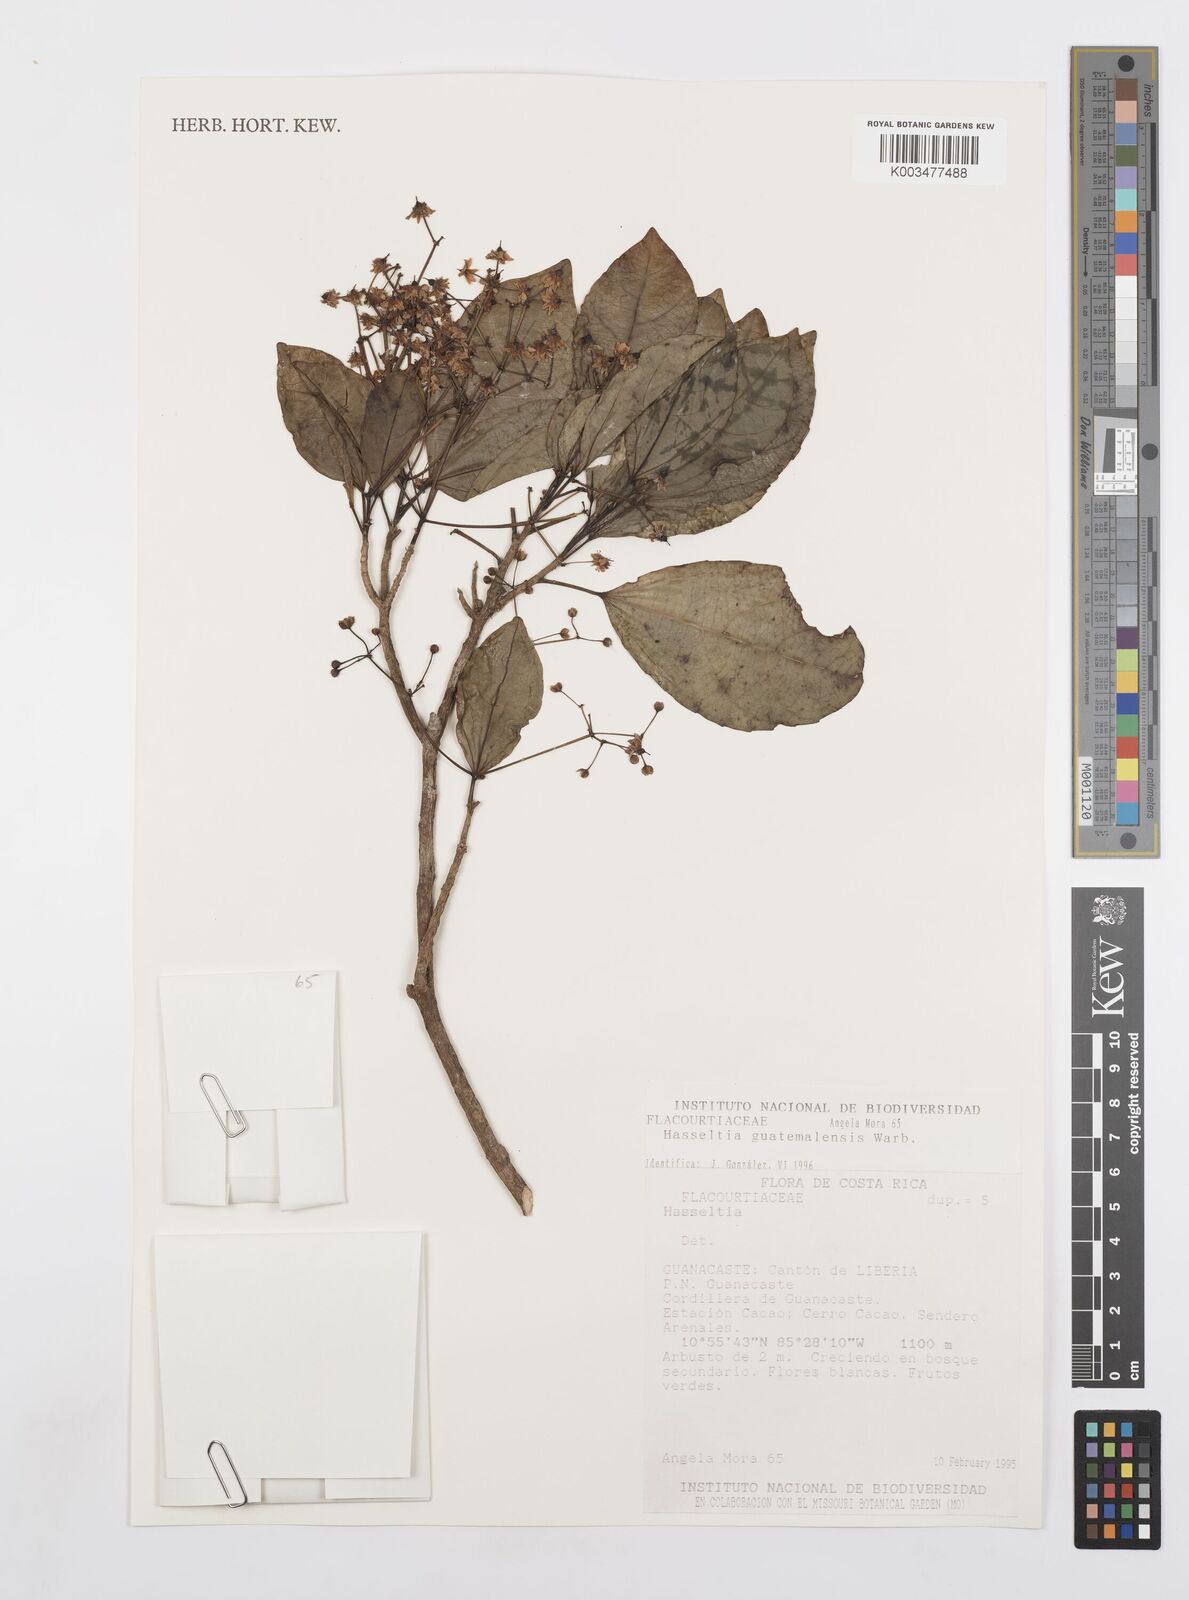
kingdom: Plantae
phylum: Tracheophyta
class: Magnoliopsida
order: Malpighiales
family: Salicaceae
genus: Hasseltia
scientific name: Hasseltia guatemalensis
